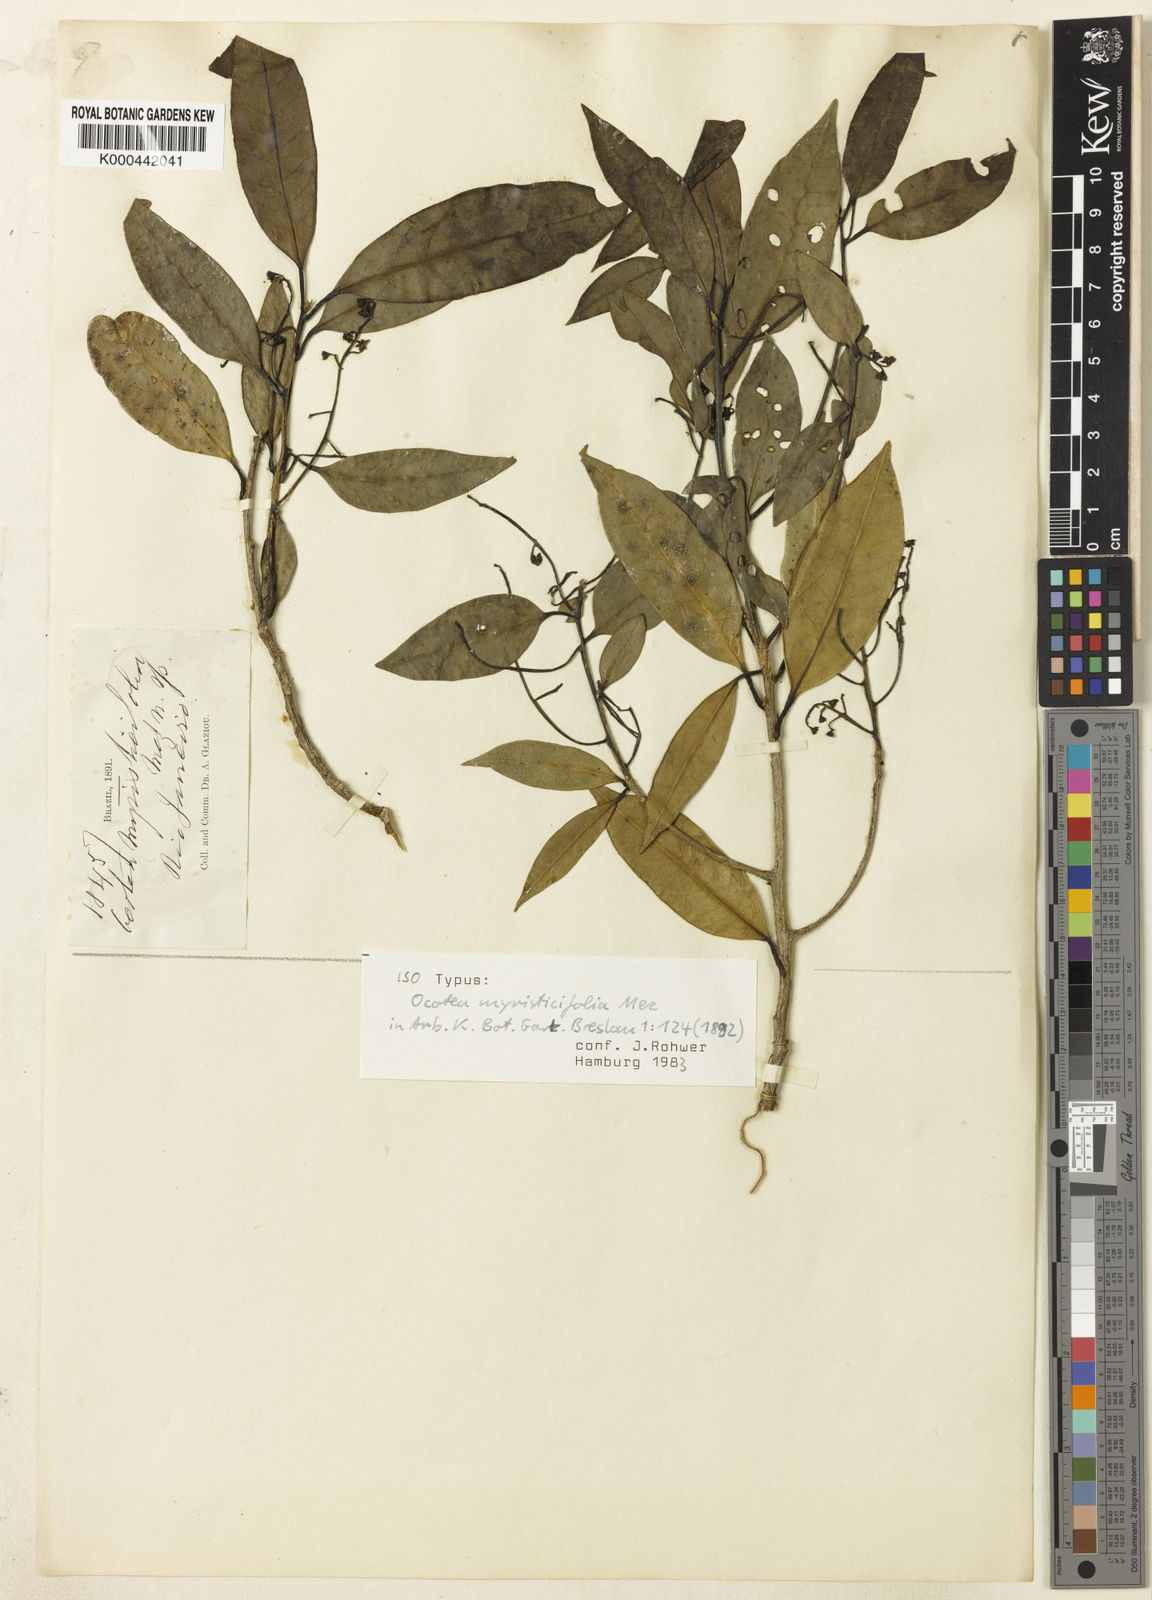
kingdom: Plantae
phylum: Tracheophyta
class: Magnoliopsida
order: Laurales
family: Lauraceae
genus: Ocotea
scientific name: Ocotea schwackeana
